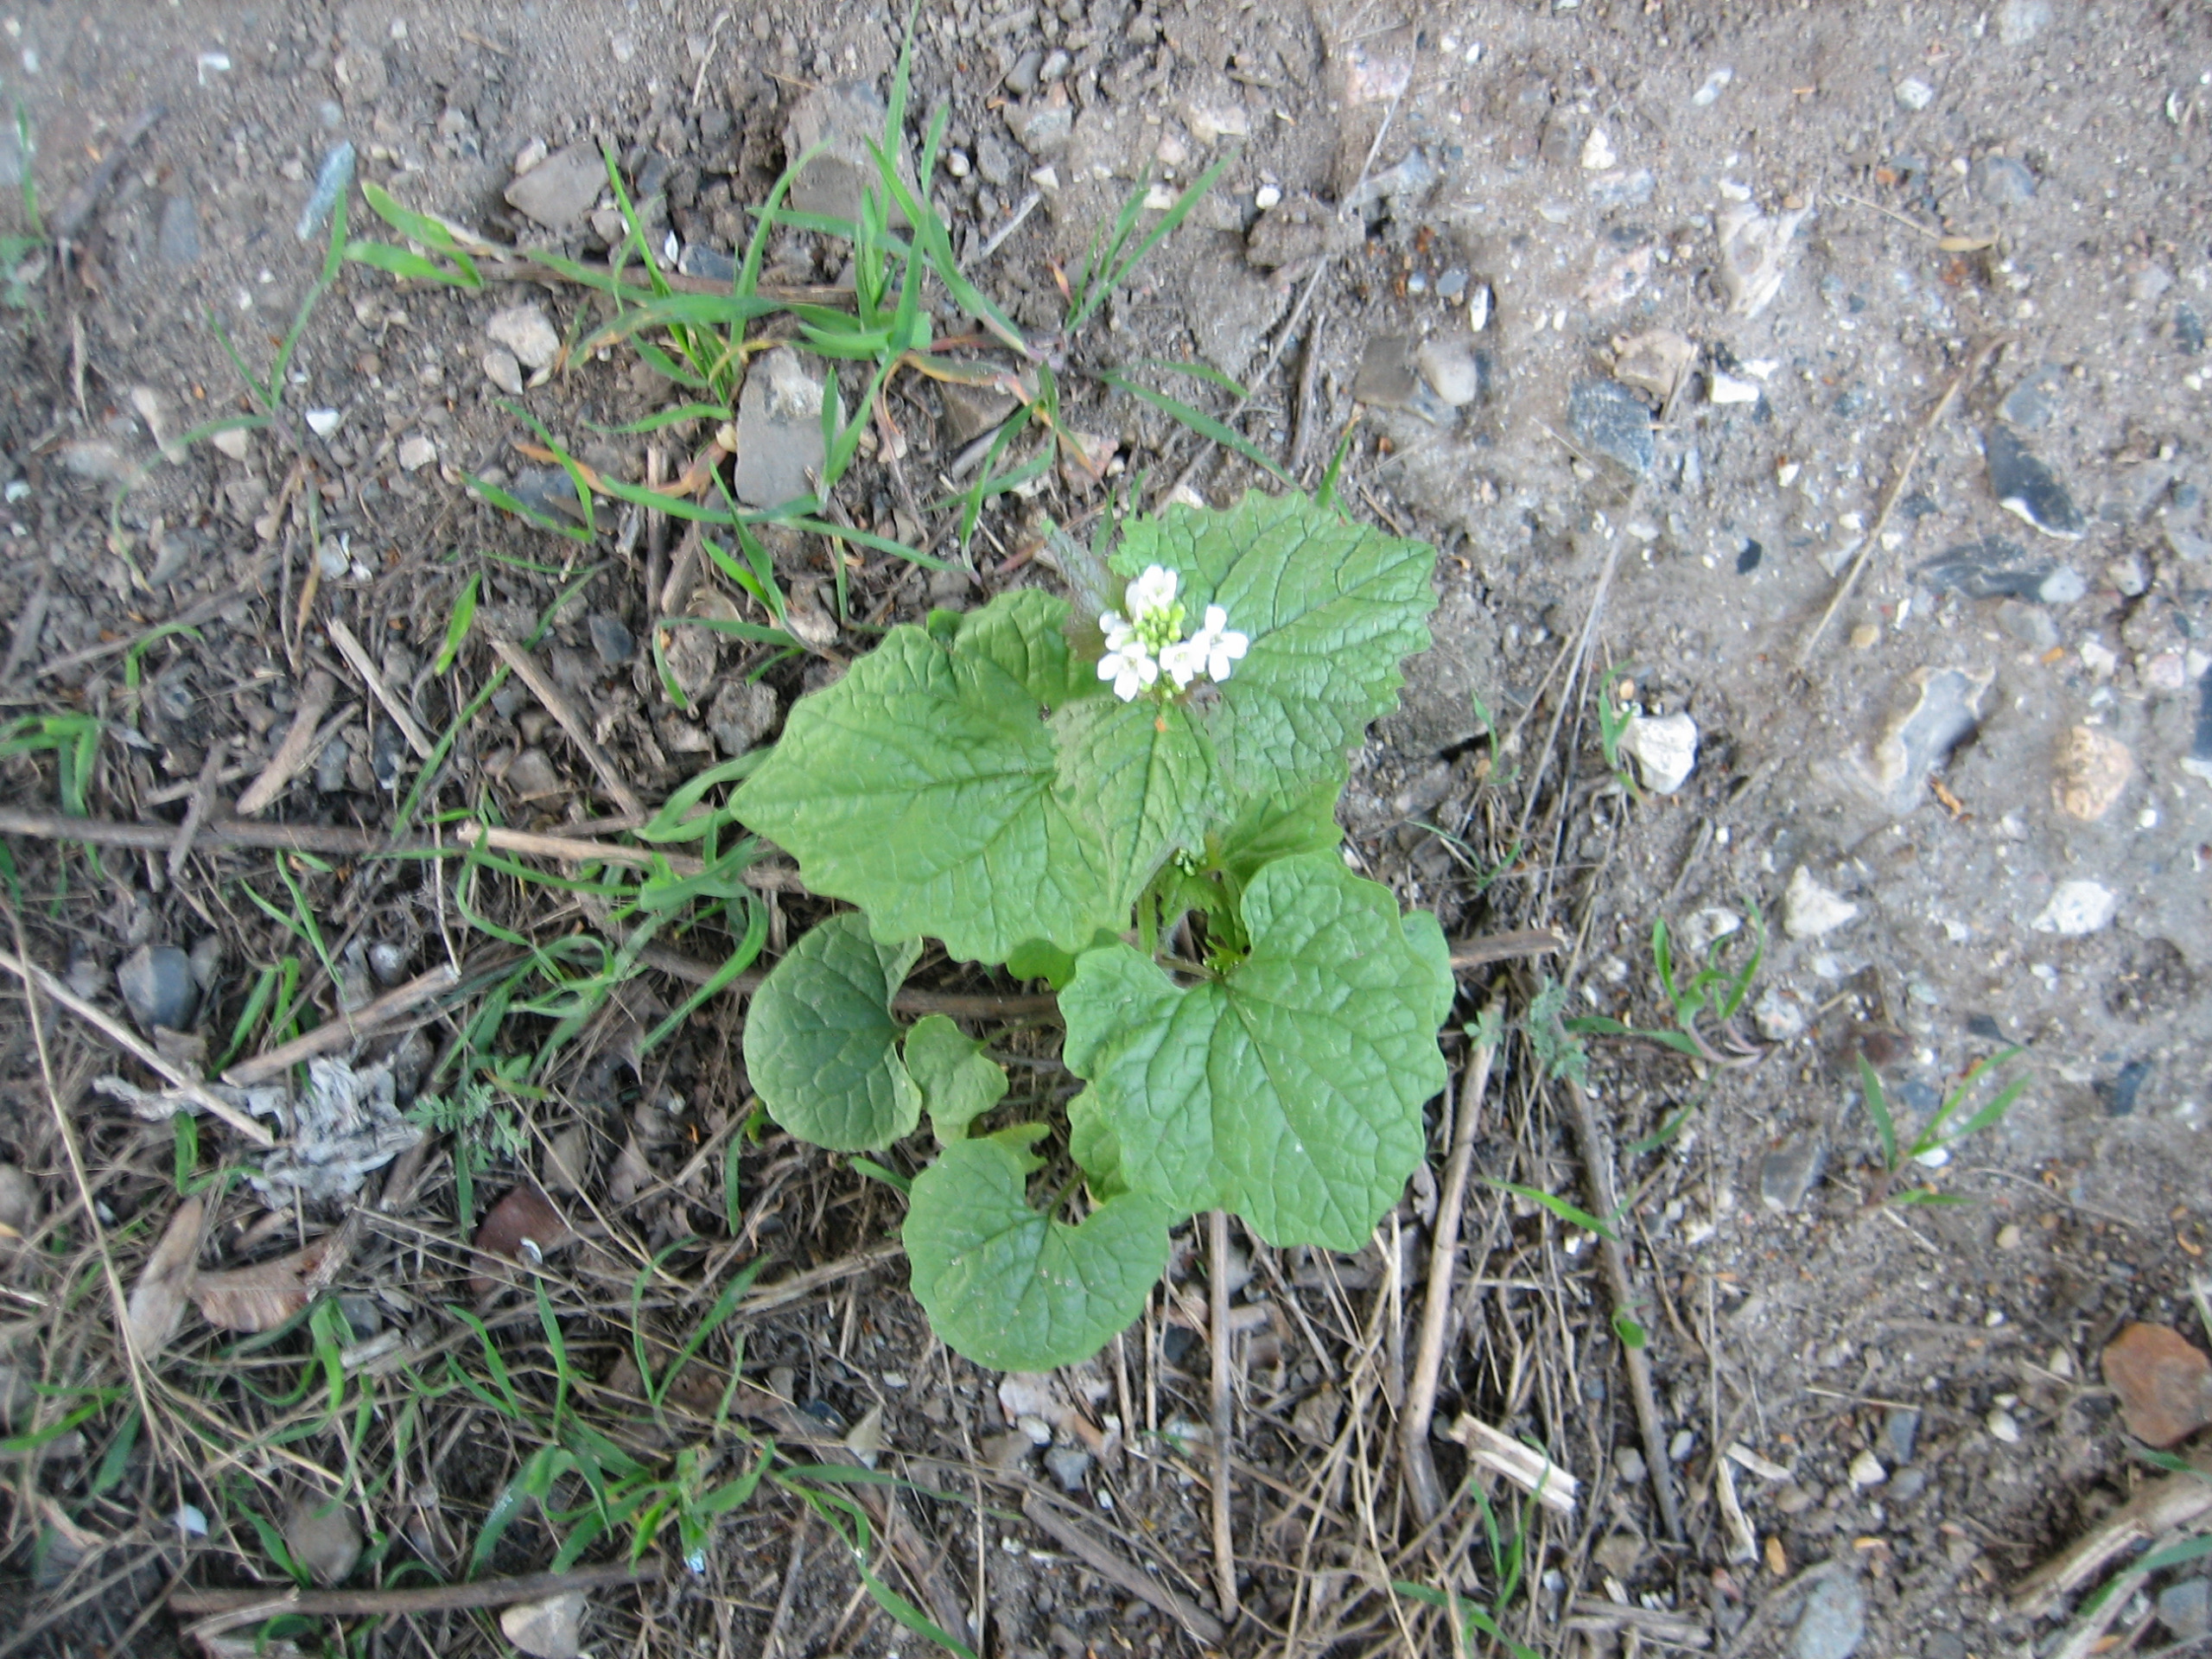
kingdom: Plantae
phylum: Tracheophyta
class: Magnoliopsida
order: Brassicales
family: Brassicaceae
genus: Alliaria
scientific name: Alliaria petiolata
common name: Løgkarse
